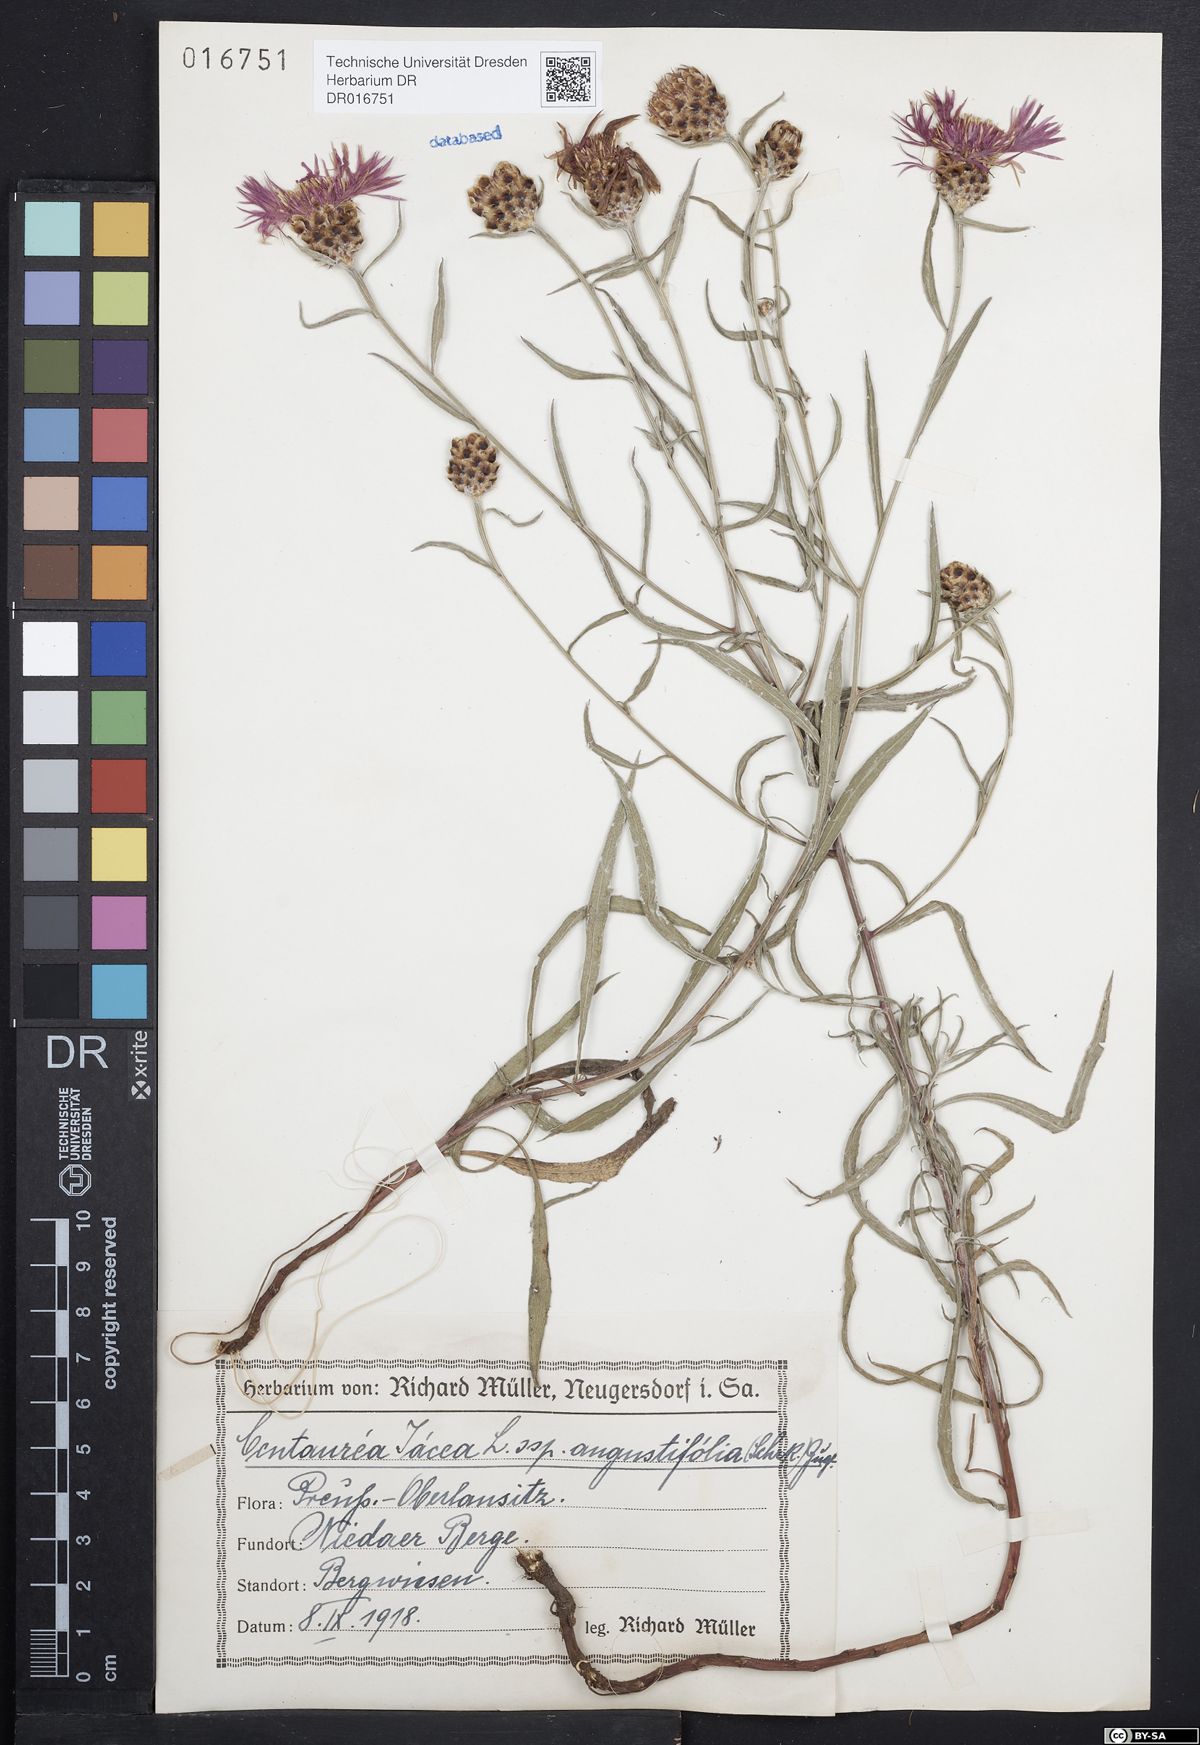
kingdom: Plantae
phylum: Tracheophyta
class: Magnoliopsida
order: Asterales
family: Asteraceae
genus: Centaurea
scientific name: Centaurea pannonica
